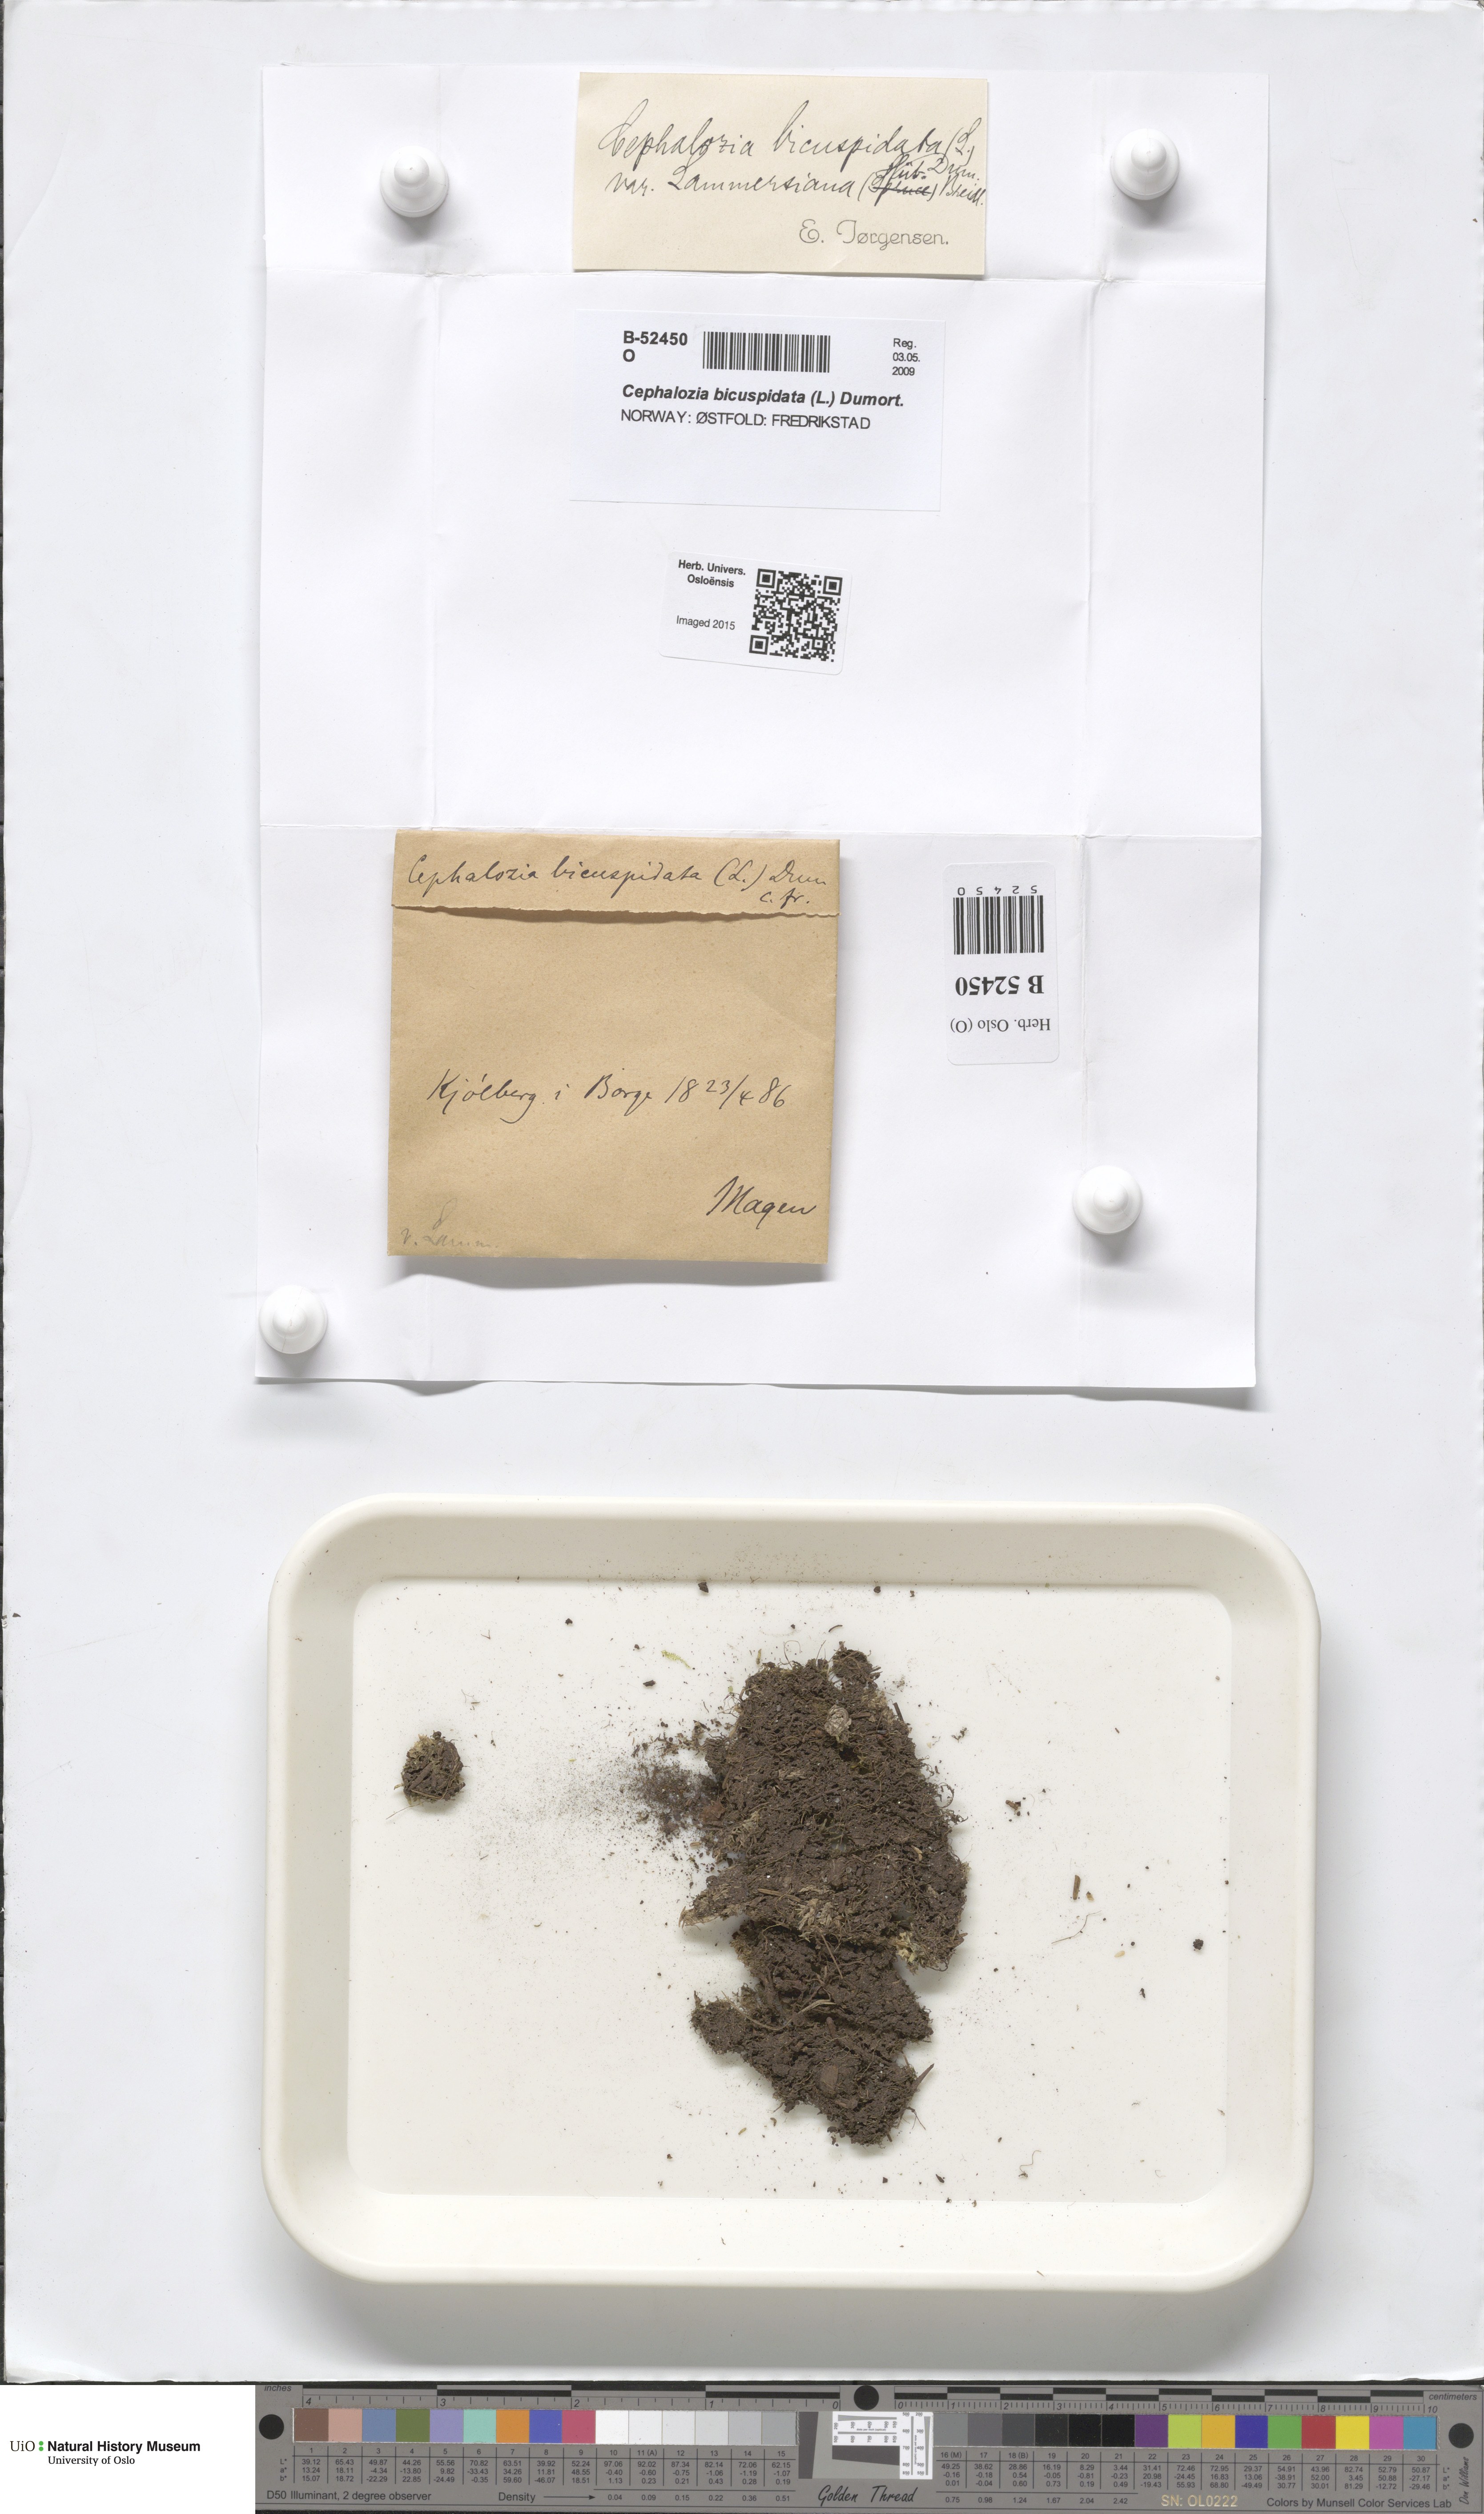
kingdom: Plantae
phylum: Marchantiophyta
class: Jungermanniopsida
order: Jungermanniales
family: Cephaloziaceae
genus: Cephalozia
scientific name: Cephalozia bicuspidata
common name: Two-horned pincerwort
